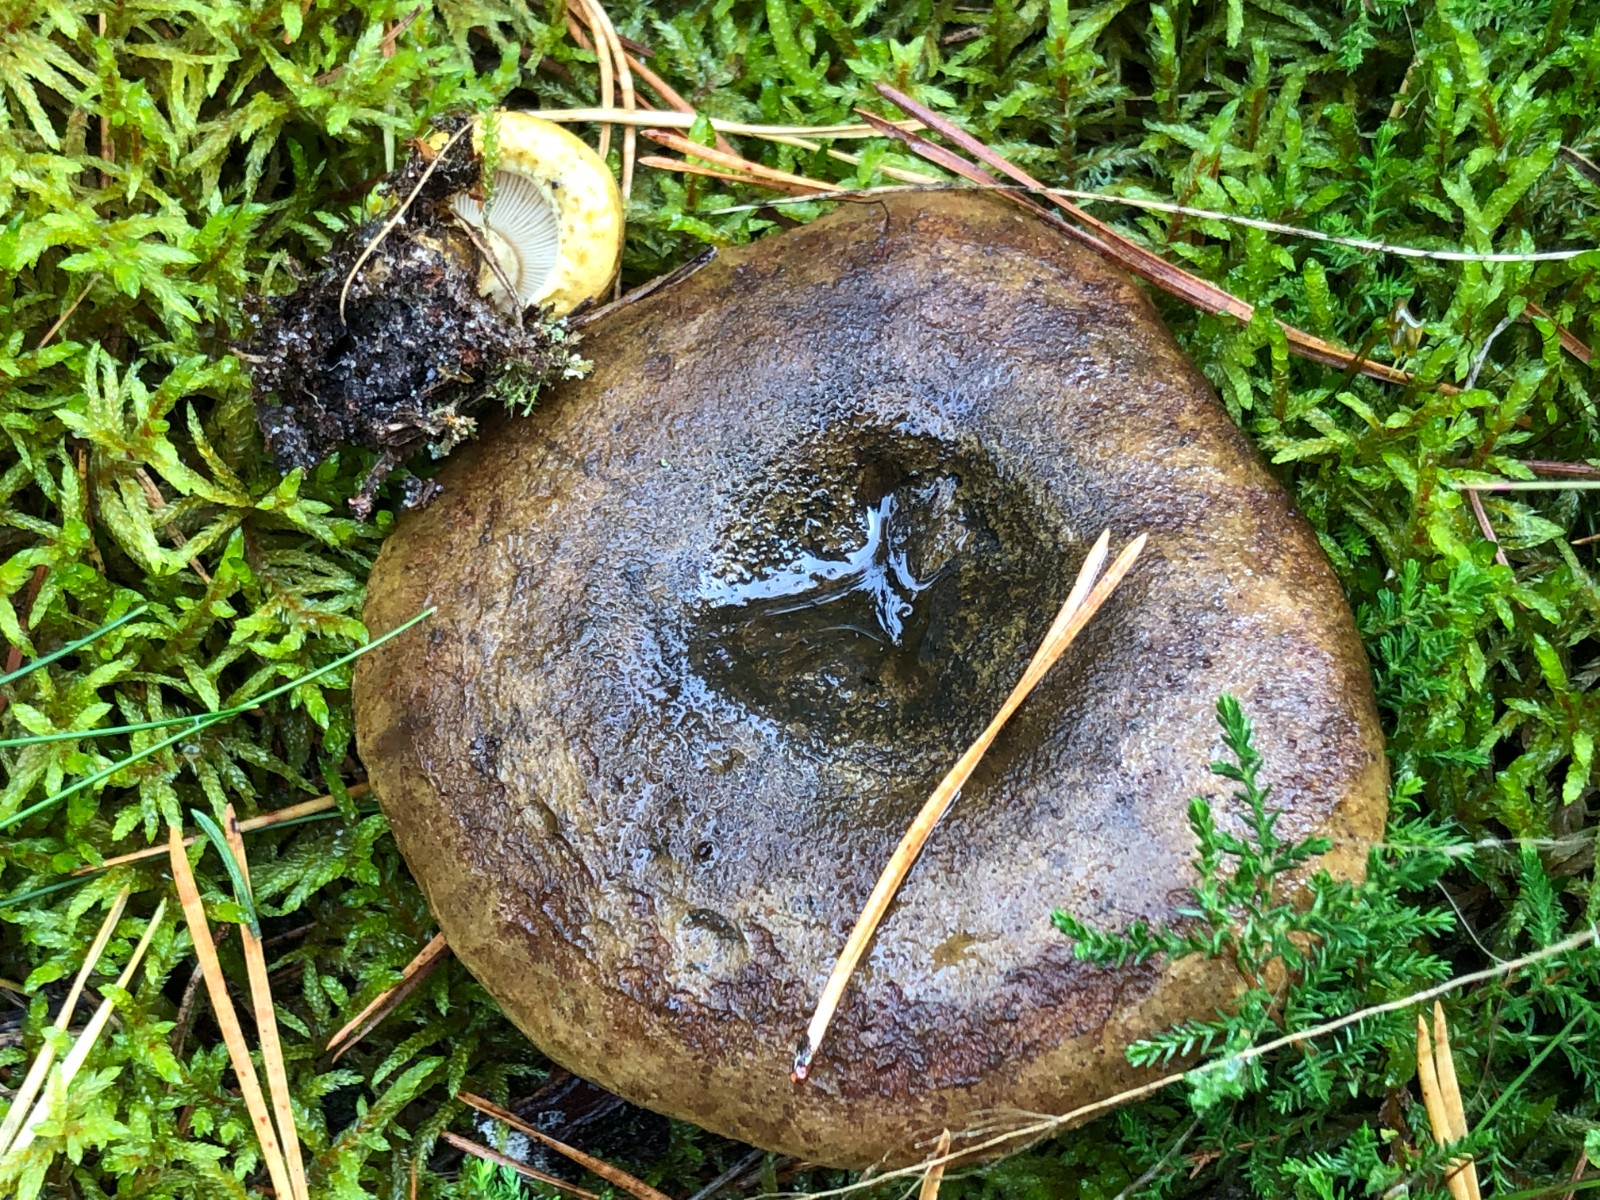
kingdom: Fungi
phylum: Basidiomycota
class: Agaricomycetes
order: Russulales
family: Russulaceae
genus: Lactarius
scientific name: Lactarius necator
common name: manddraber-mælkehat
